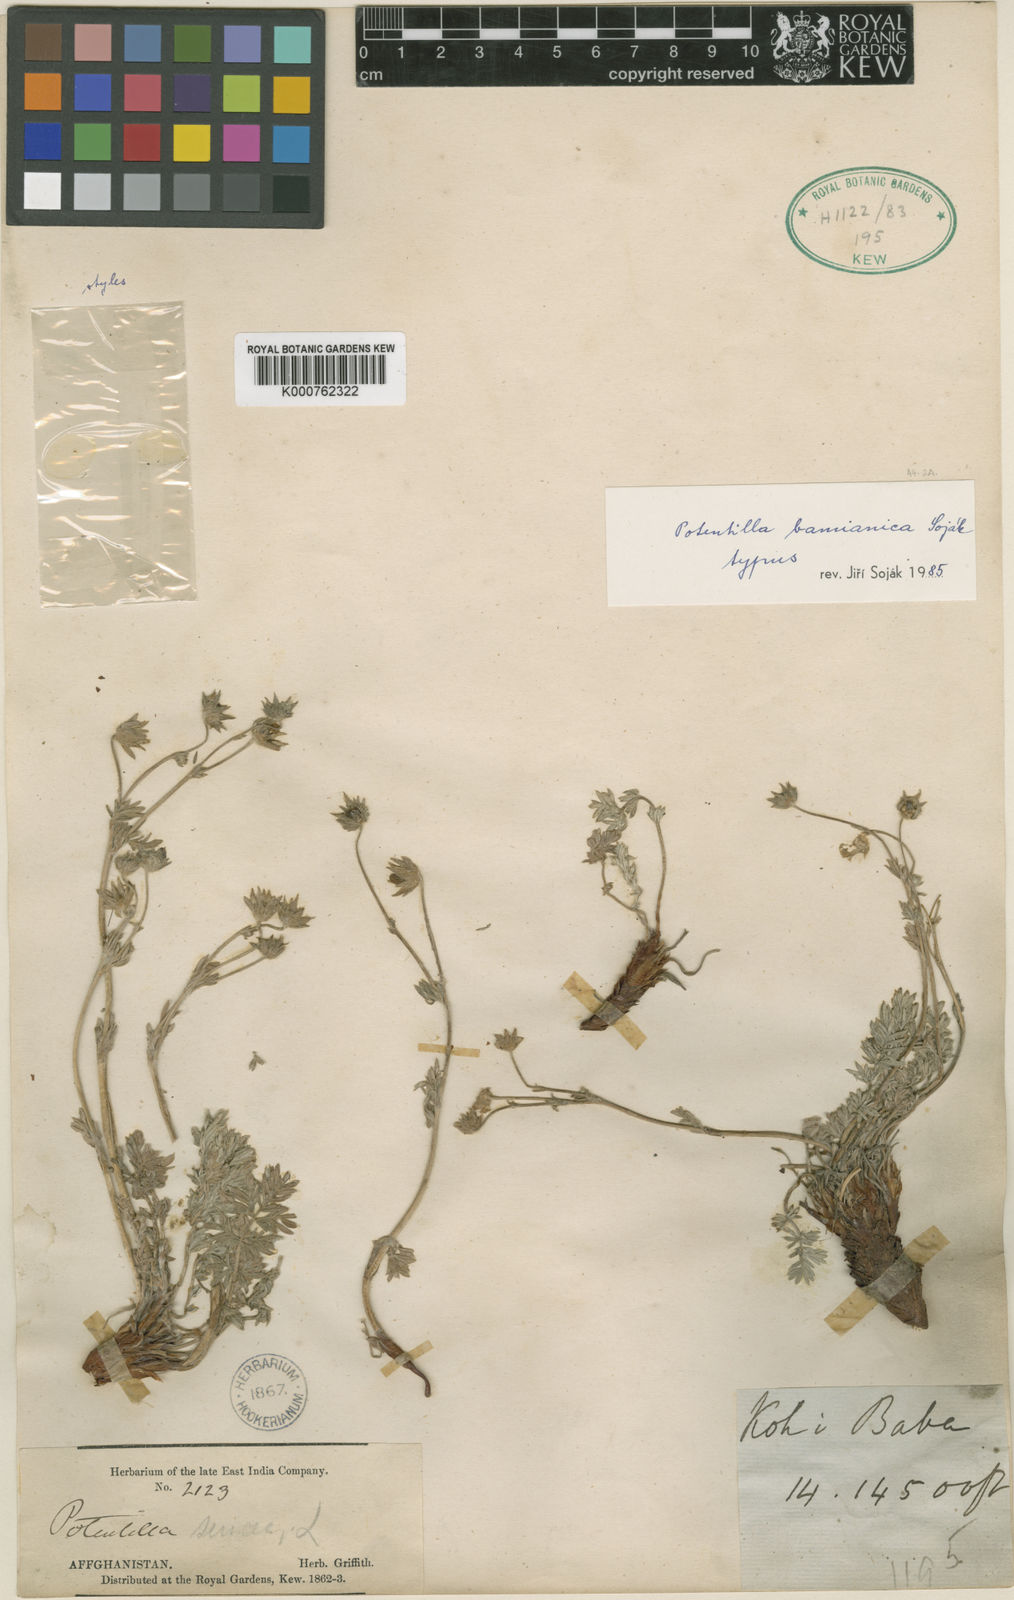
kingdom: Plantae
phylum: Tracheophyta
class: Magnoliopsida
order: Rosales
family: Rosaceae
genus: Potentilla
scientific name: Potentilla
